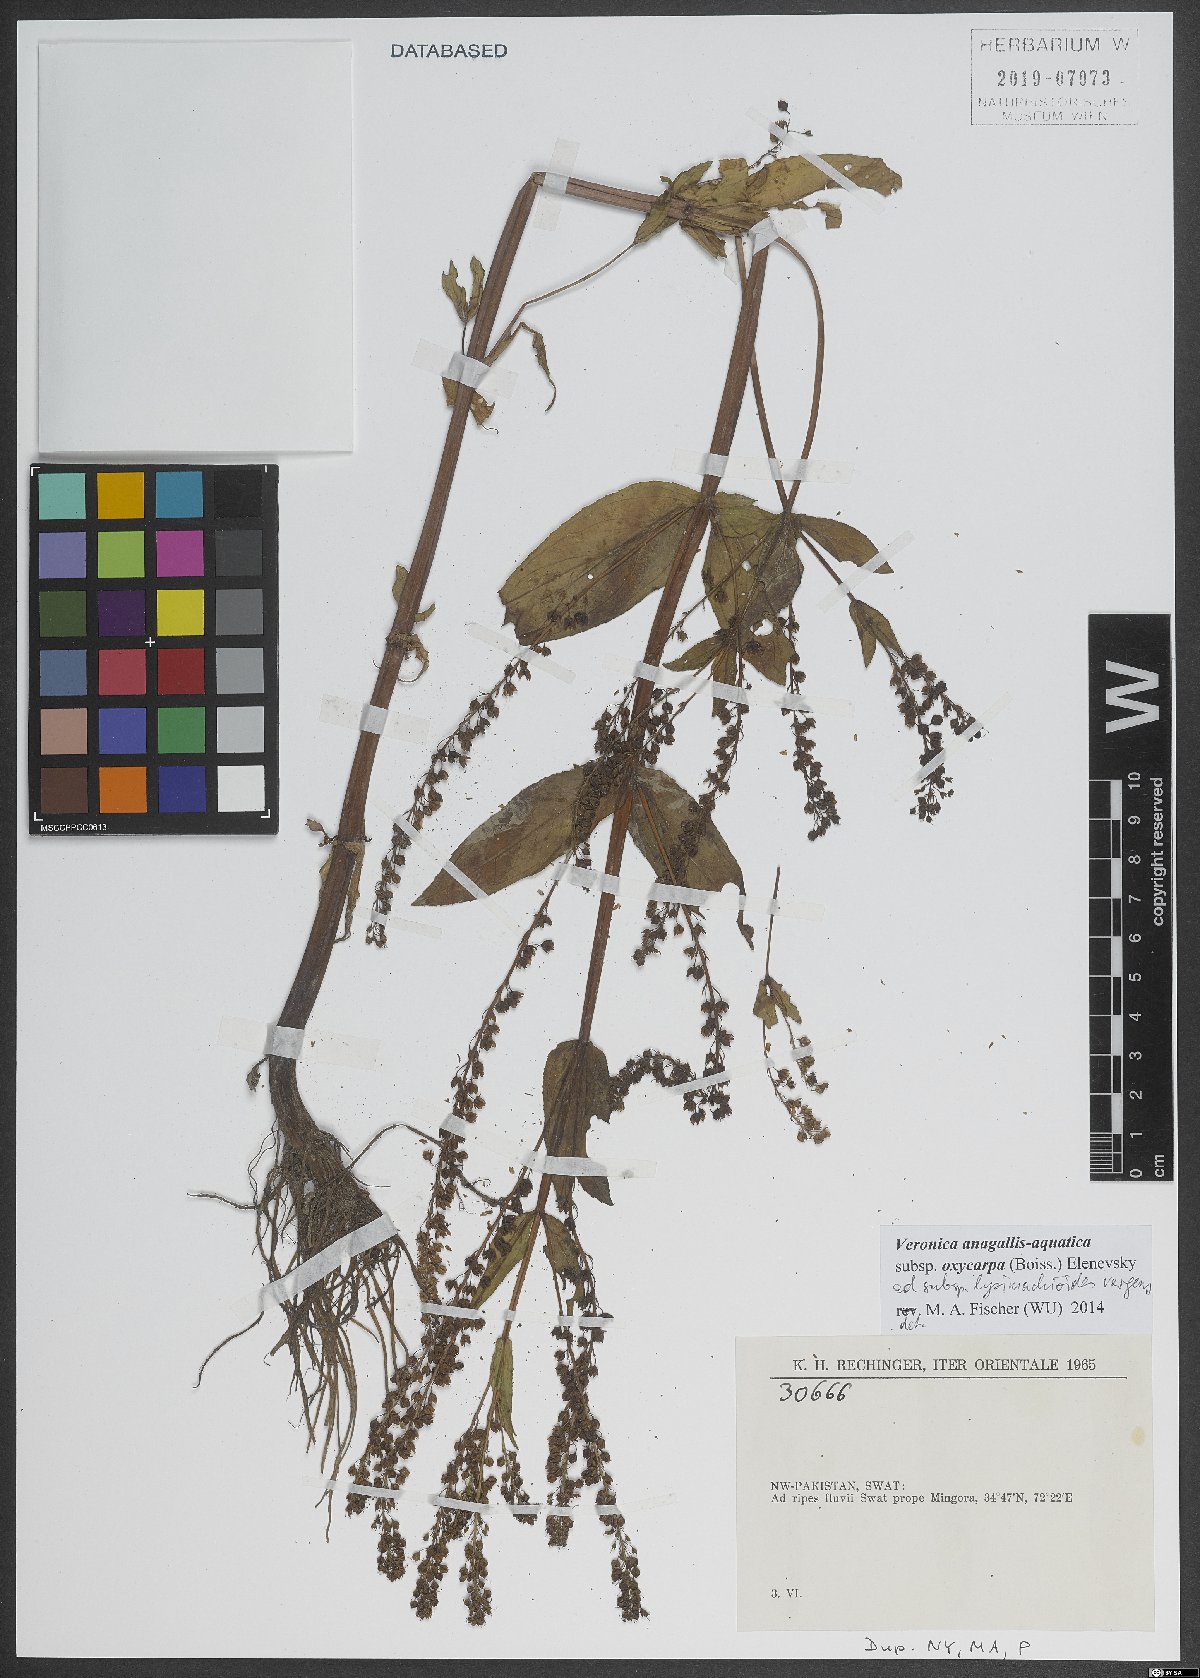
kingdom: Plantae
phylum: Tracheophyta
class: Magnoliopsida
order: Lamiales
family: Plantaginaceae
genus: Veronica
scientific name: Veronica oxycarpa
